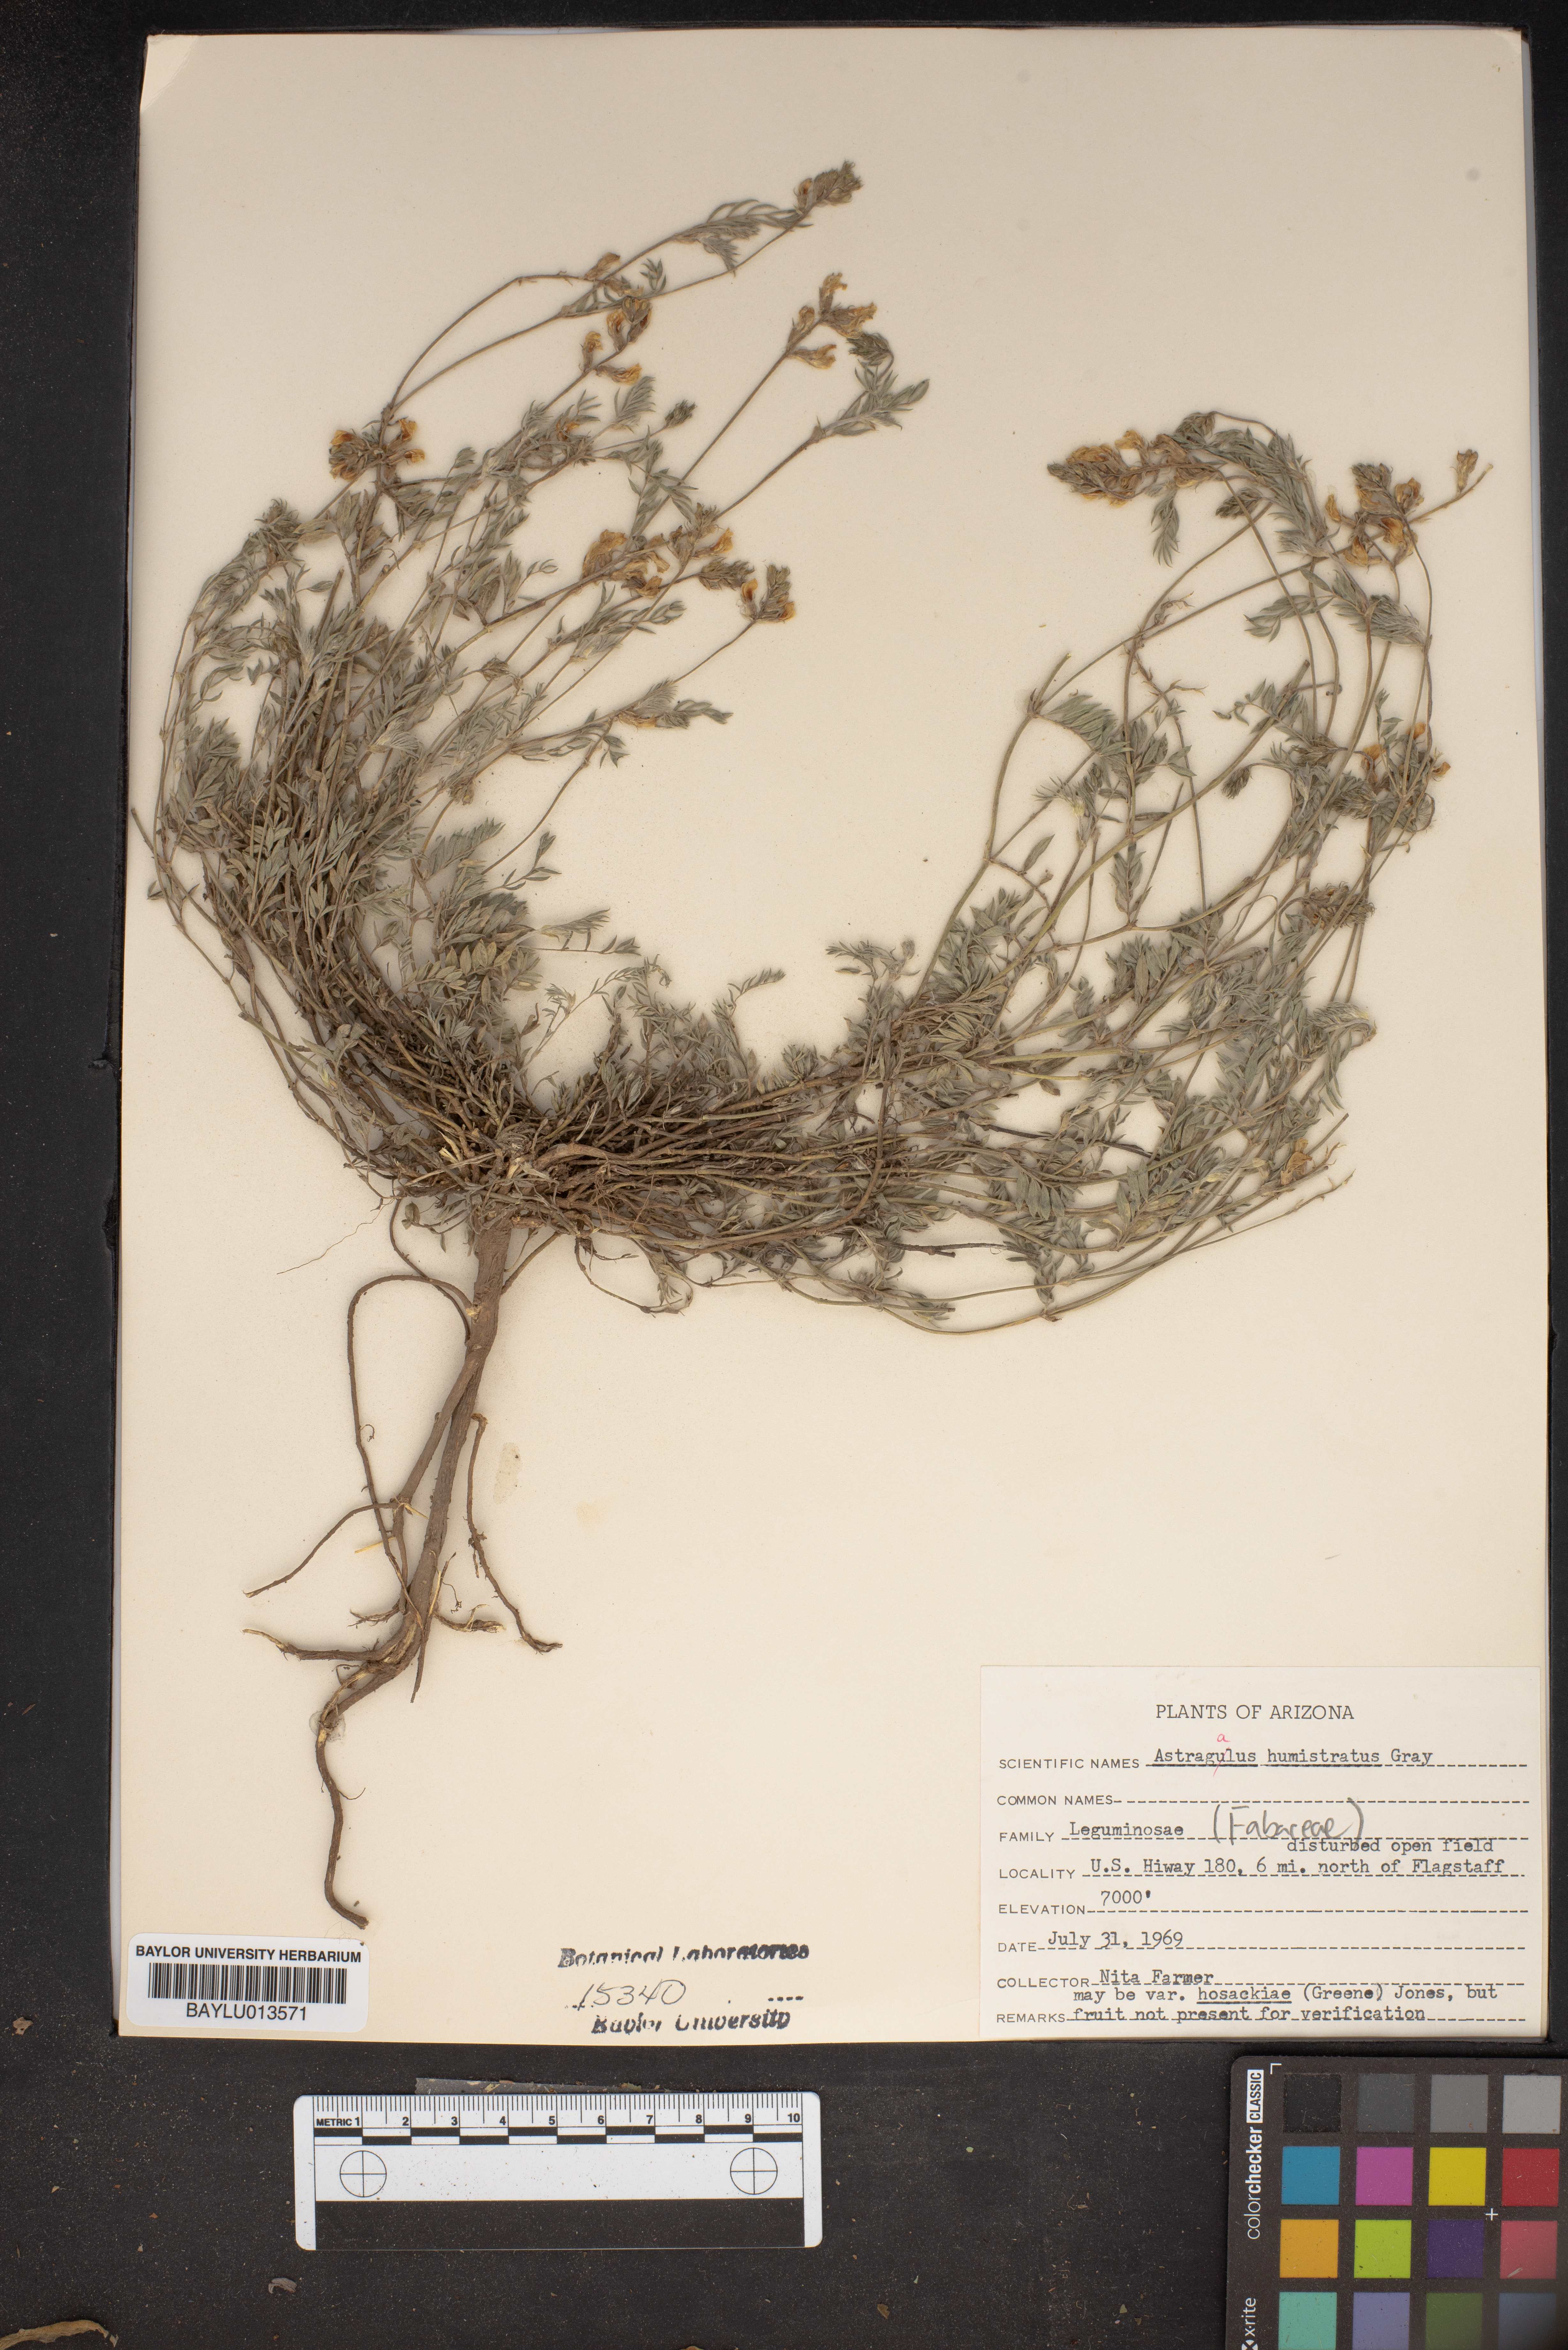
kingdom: Plantae
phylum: Tracheophyta
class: Magnoliopsida
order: Fabales
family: Fabaceae
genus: Astragalus
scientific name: Astragalus humistratus
